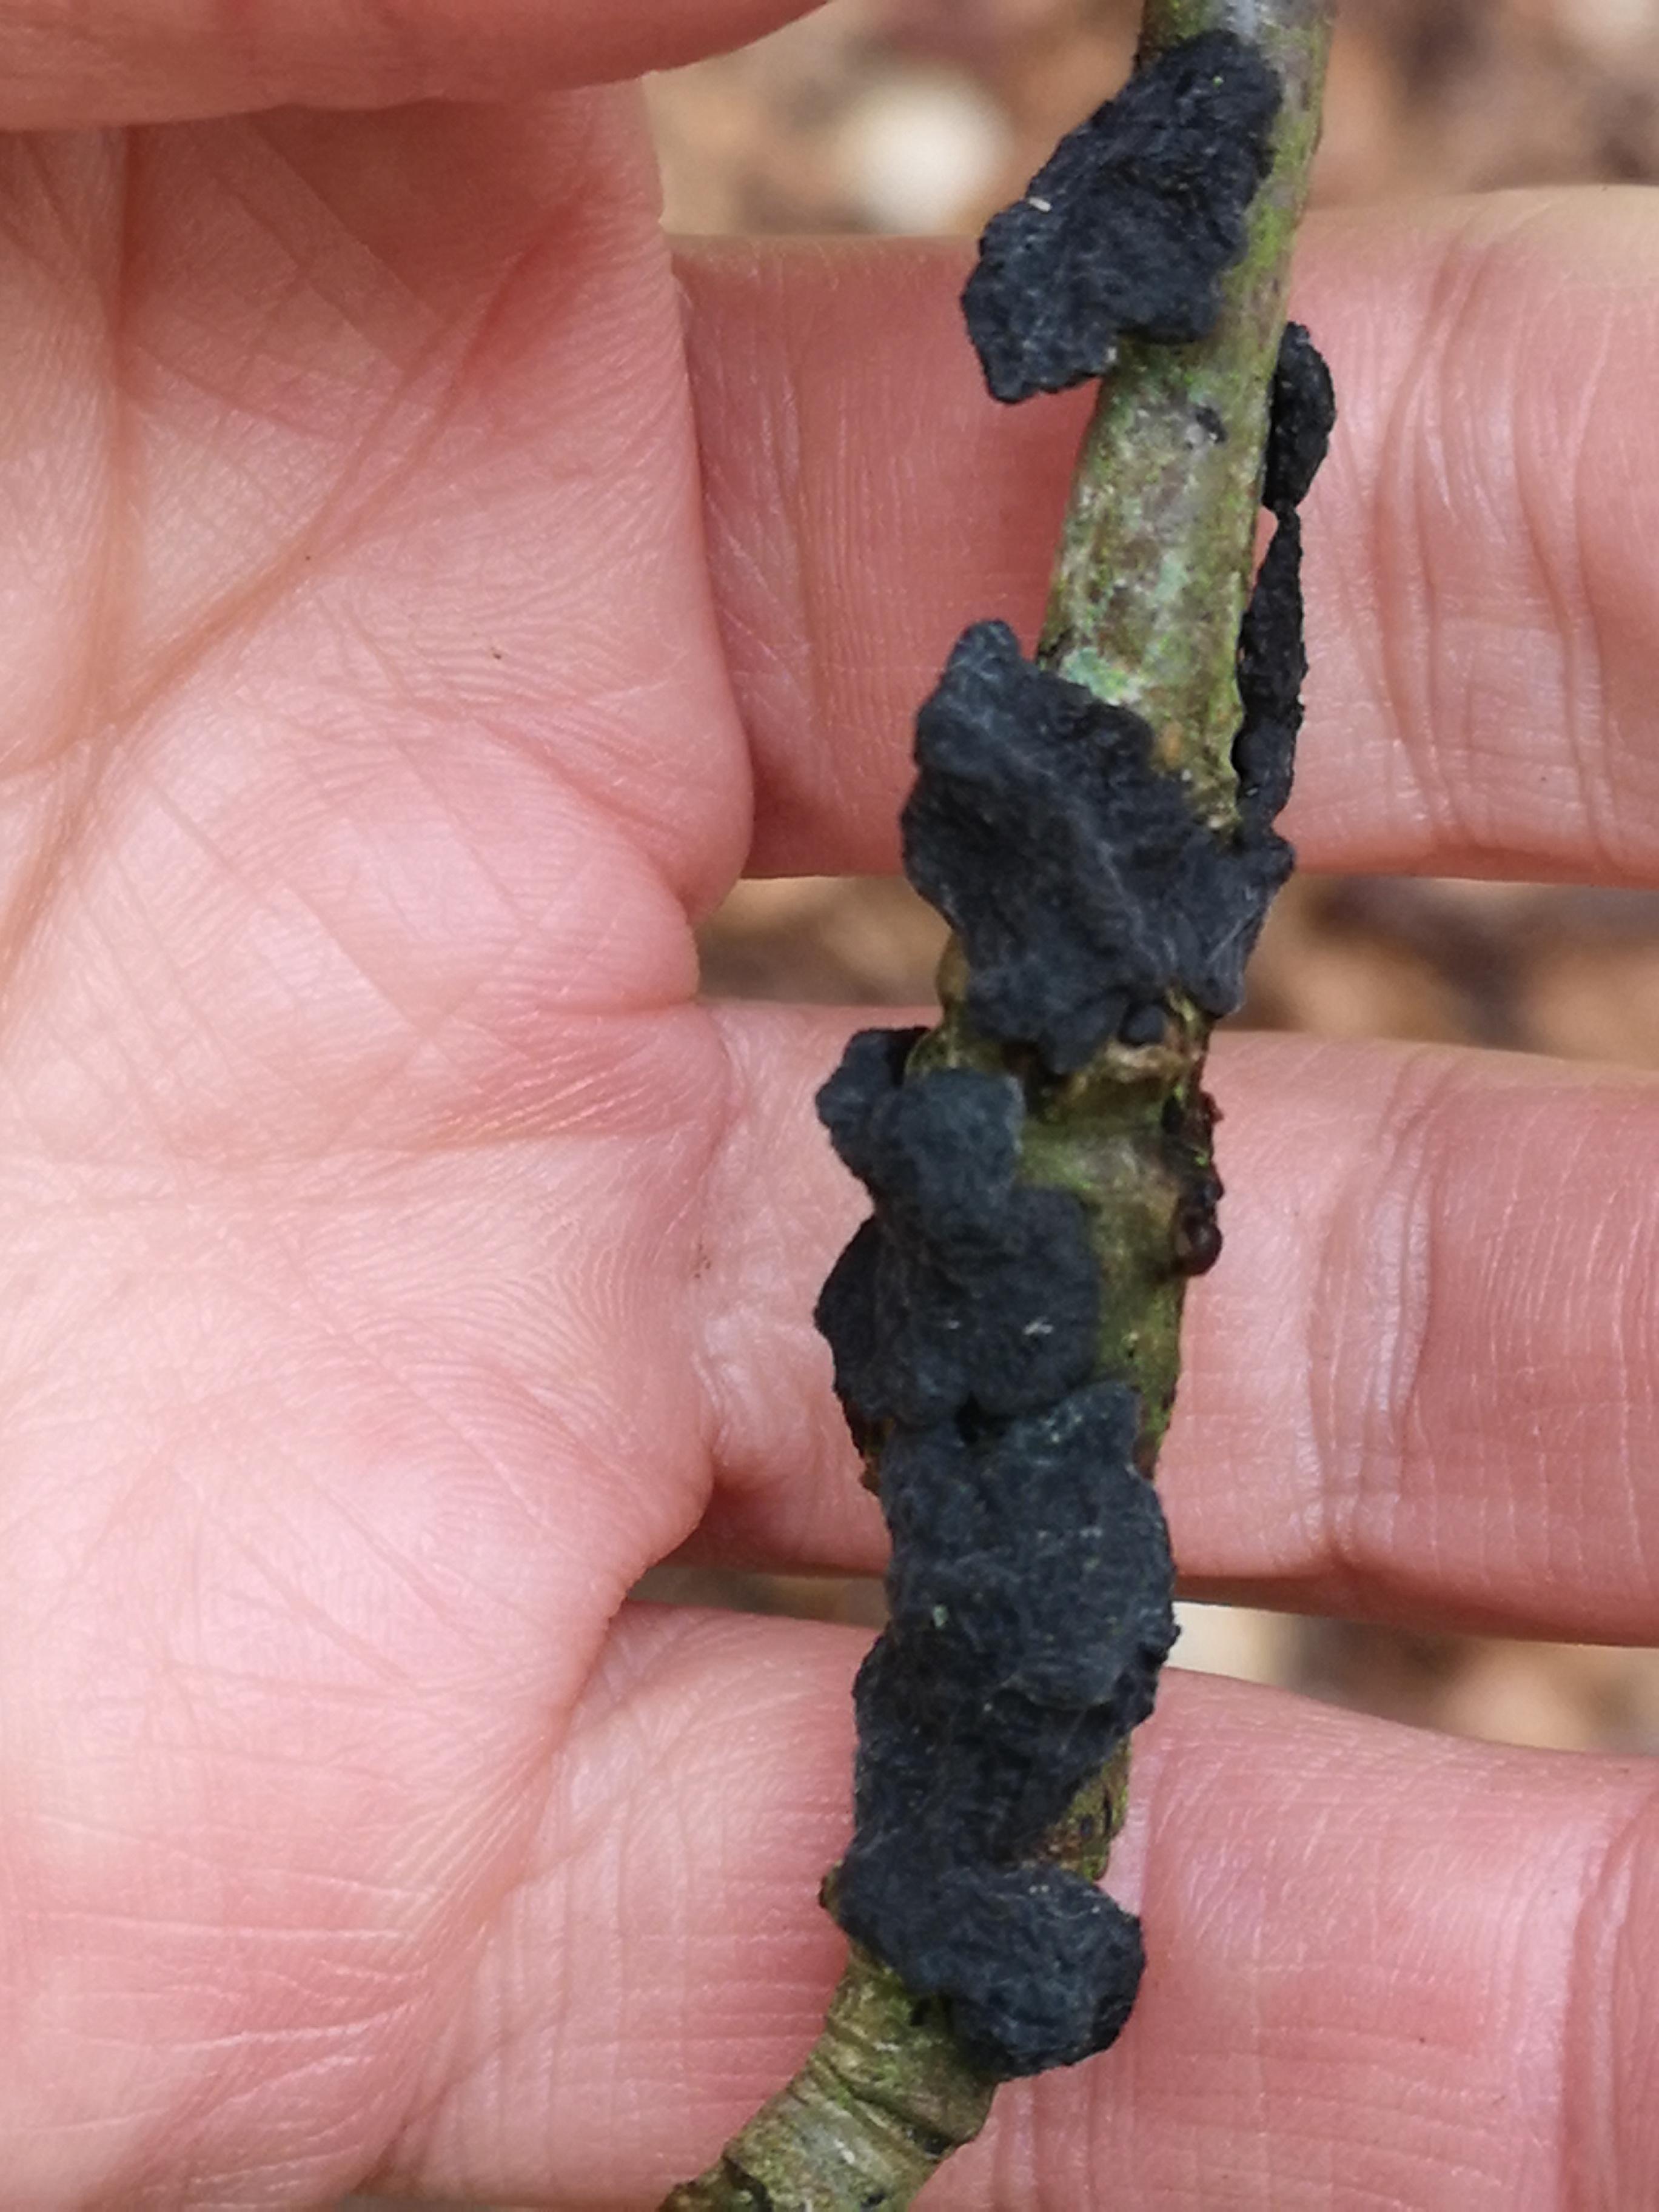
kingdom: Fungi
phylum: Basidiomycota
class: Agaricomycetes
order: Auriculariales
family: Auriculariaceae
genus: Exidia
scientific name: Exidia nigricans
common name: almindelig bævretop
